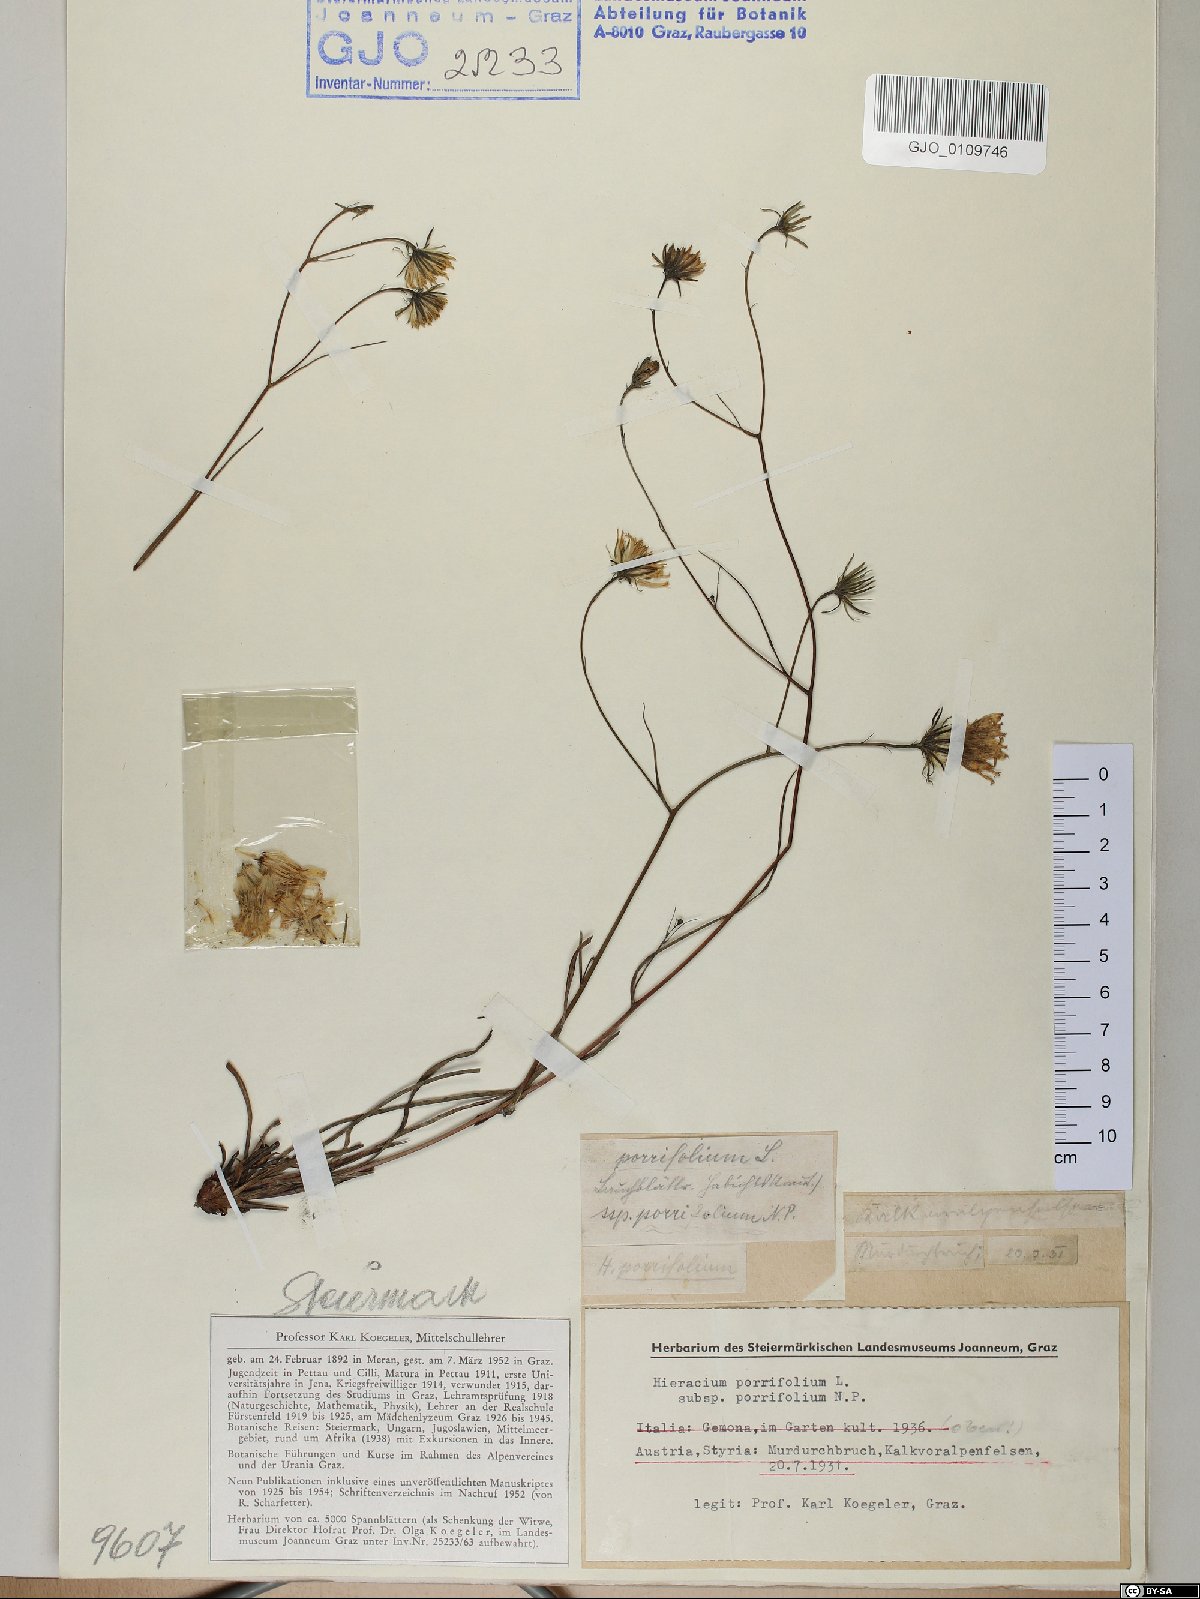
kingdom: Plantae
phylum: Tracheophyta
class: Magnoliopsida
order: Asterales
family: Asteraceae
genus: Hieracium
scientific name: Hieracium porrifolium
